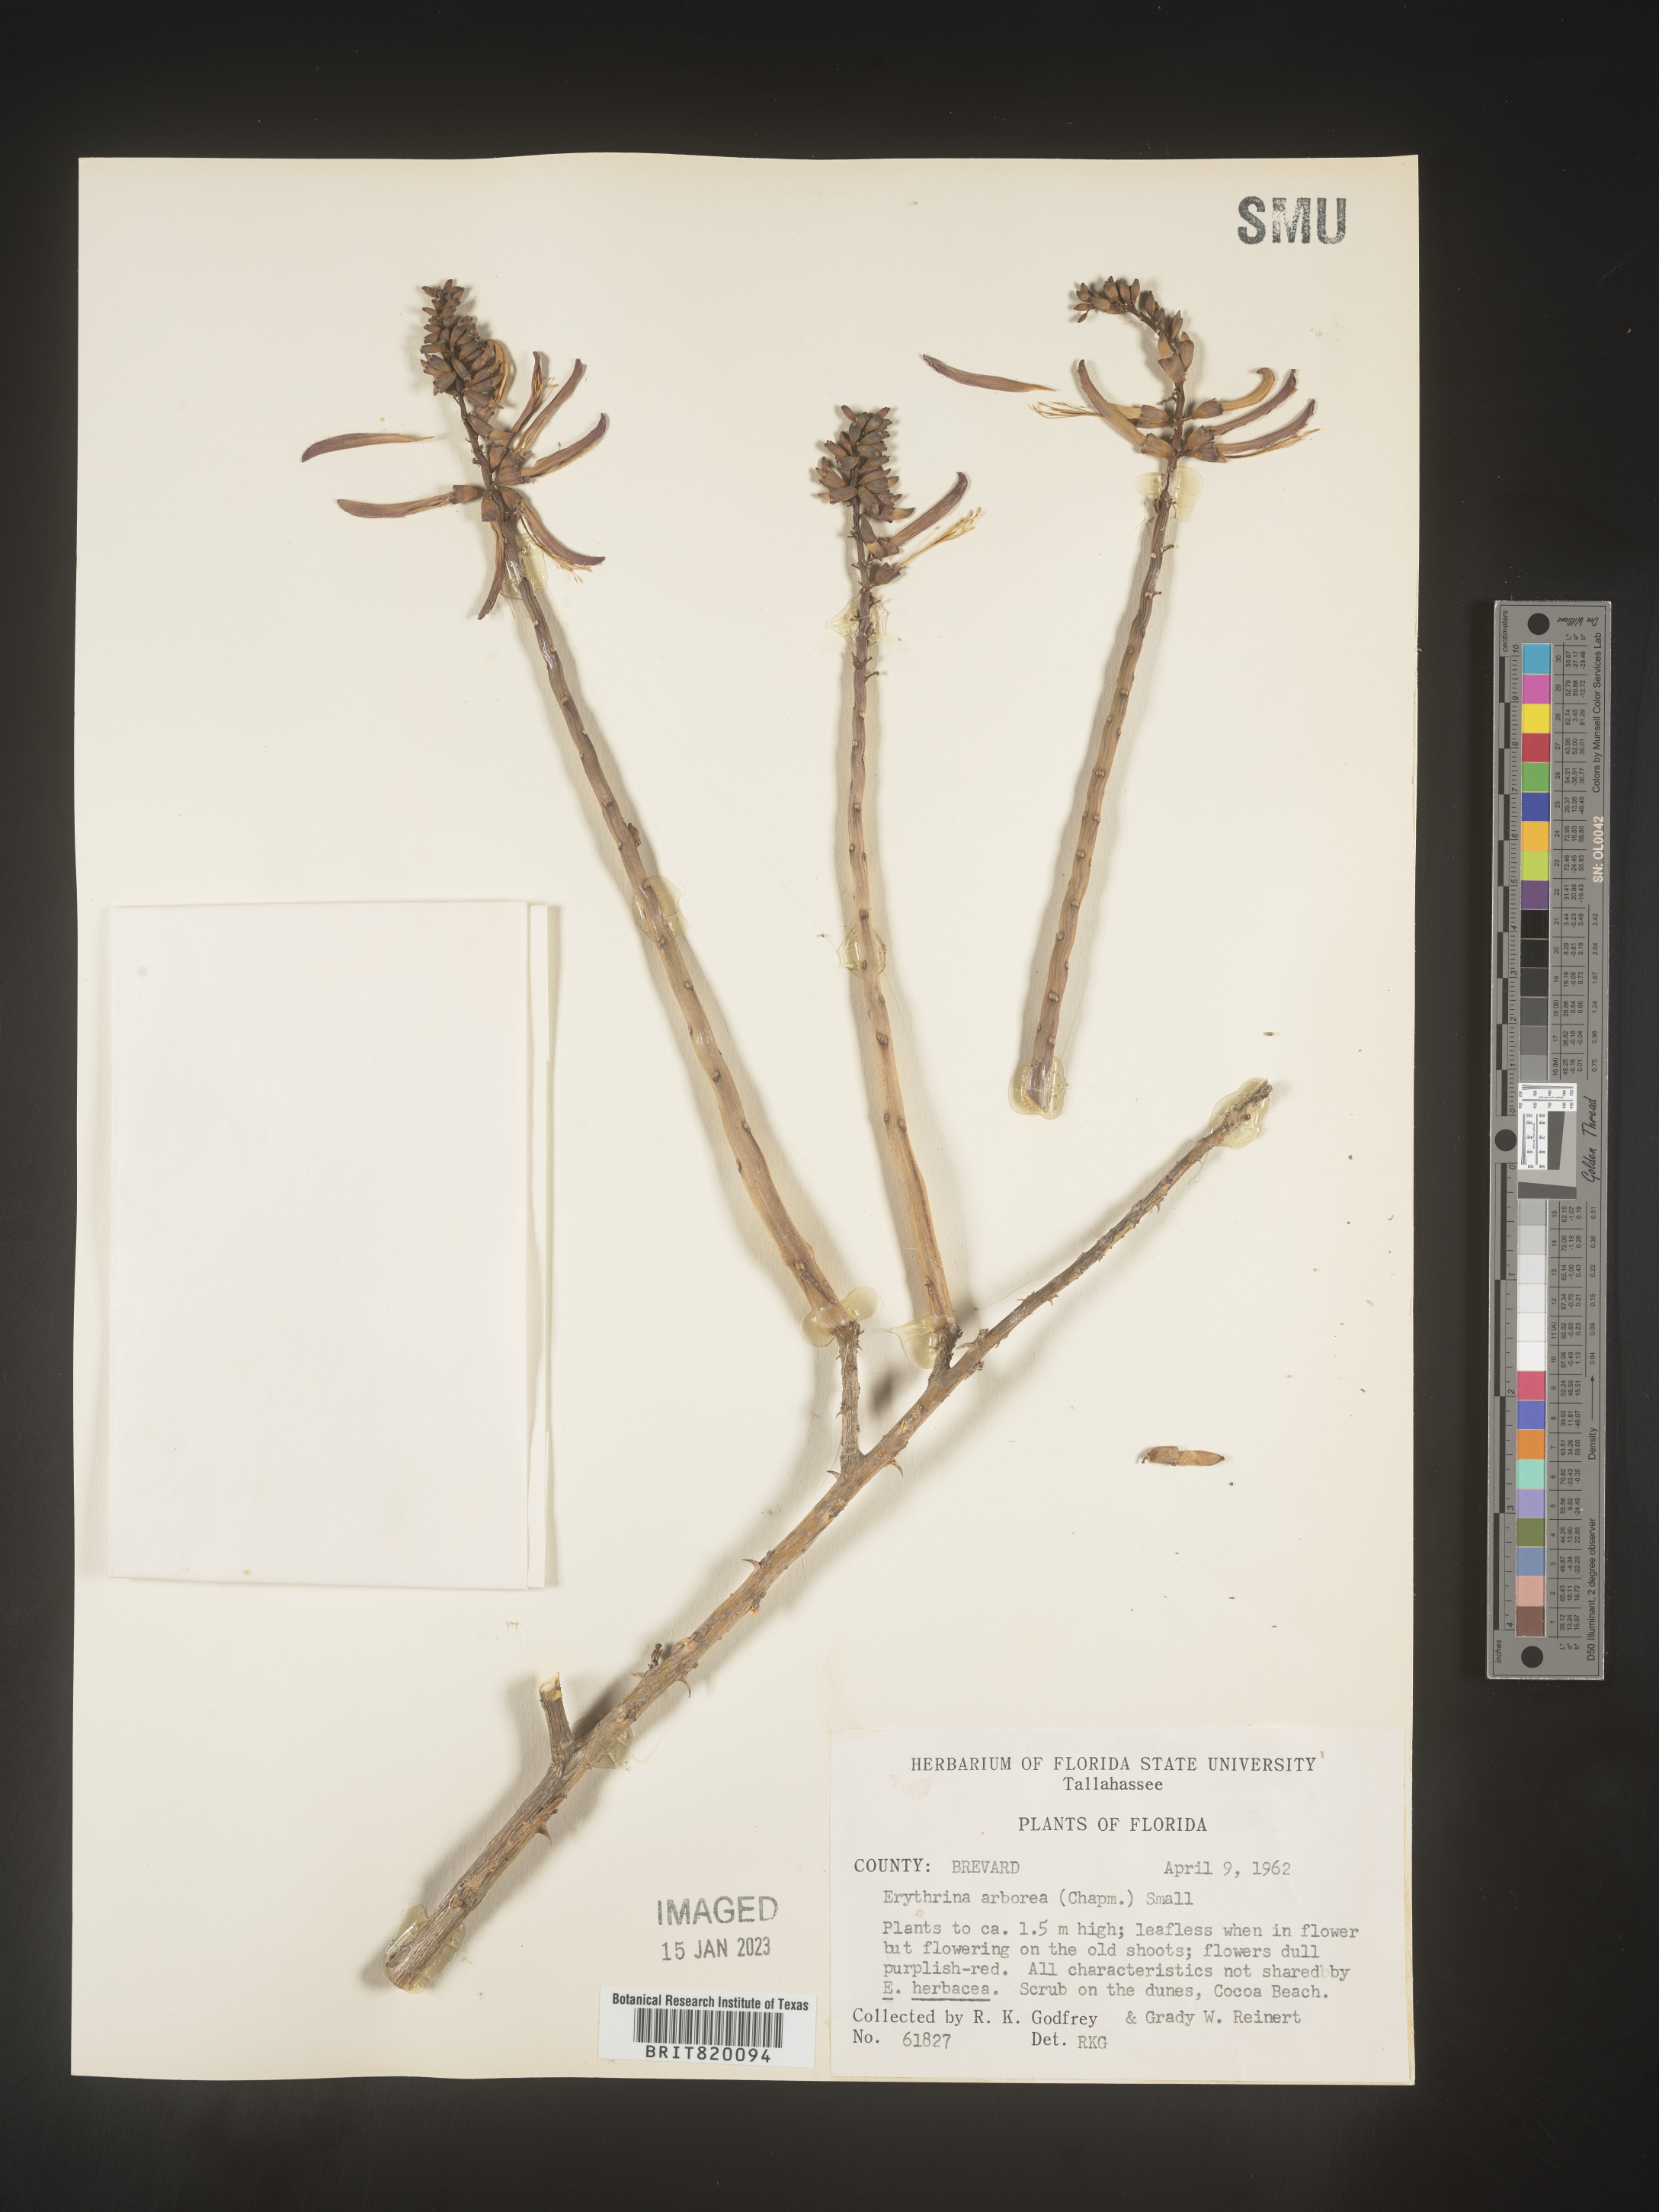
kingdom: Plantae
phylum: Tracheophyta
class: Magnoliopsida
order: Fabales
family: Fabaceae
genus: Erythrina
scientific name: Erythrina herbacea
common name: Coral-bean
